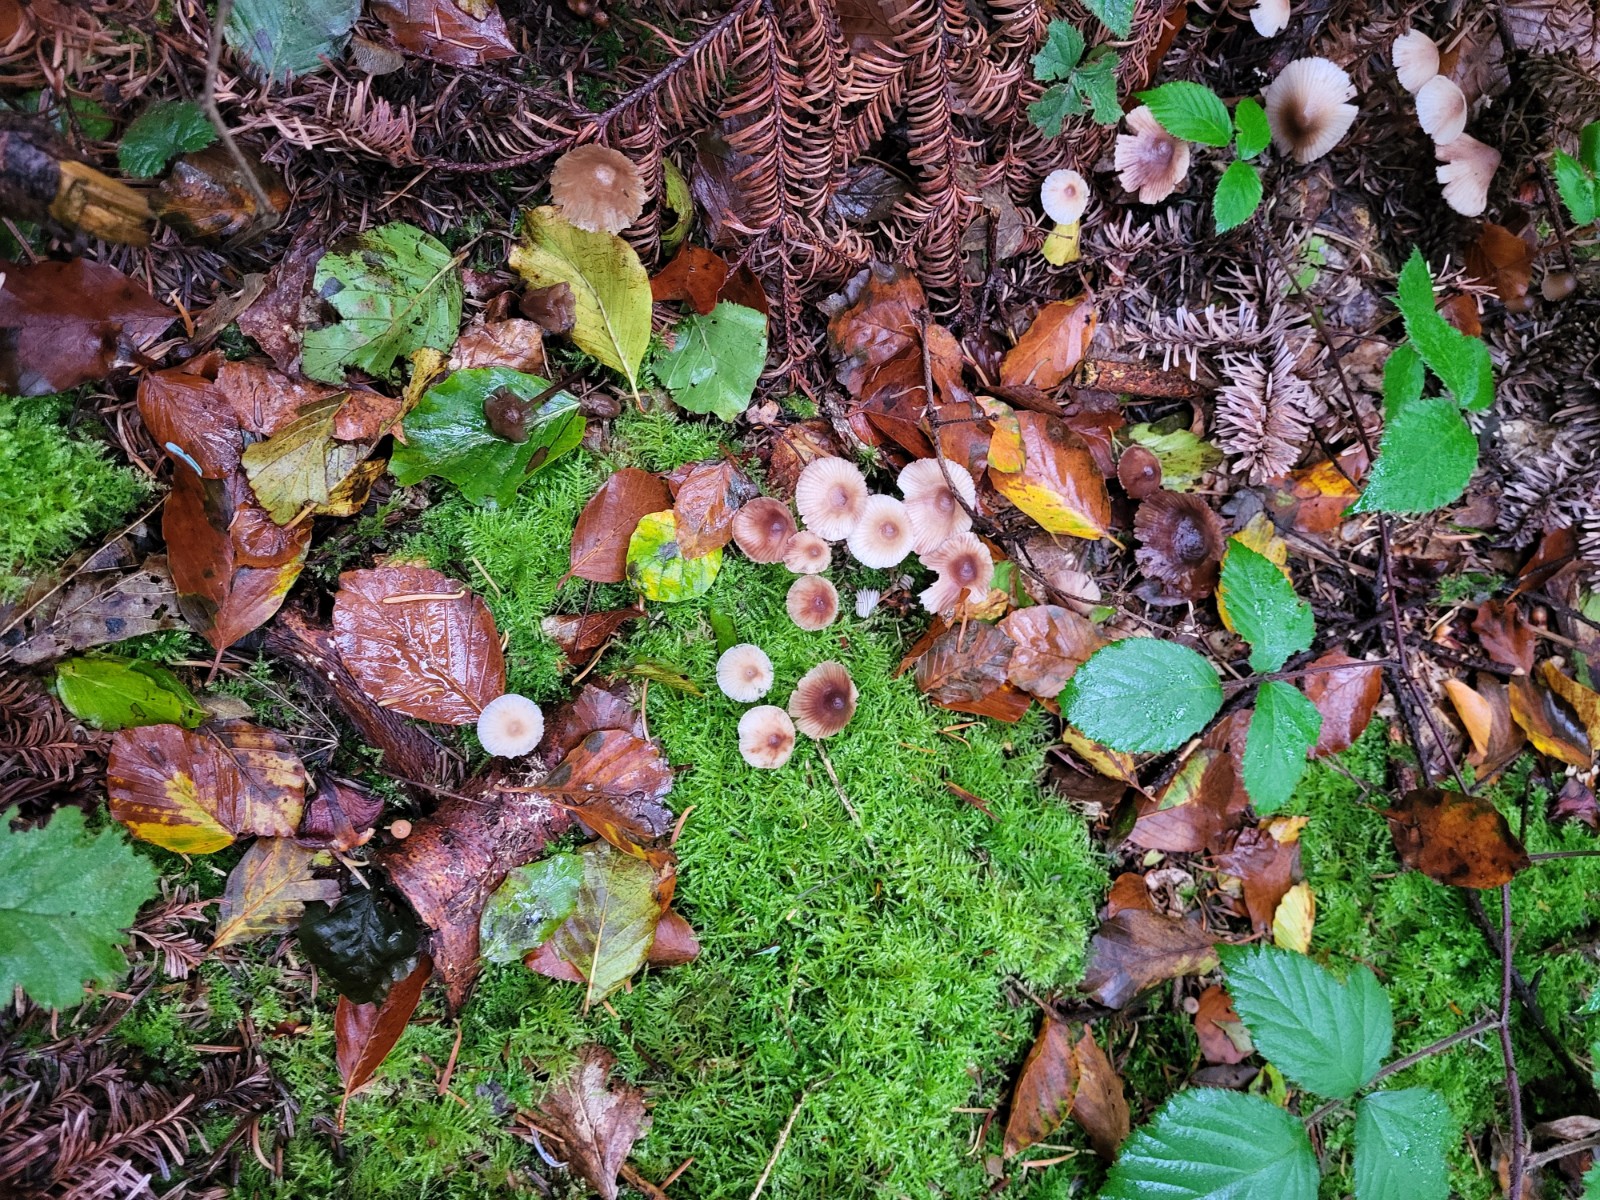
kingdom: Fungi
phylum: Basidiomycota
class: Agaricomycetes
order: Agaricales
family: Mycenaceae
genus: Mycena
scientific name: Mycena zephirus
